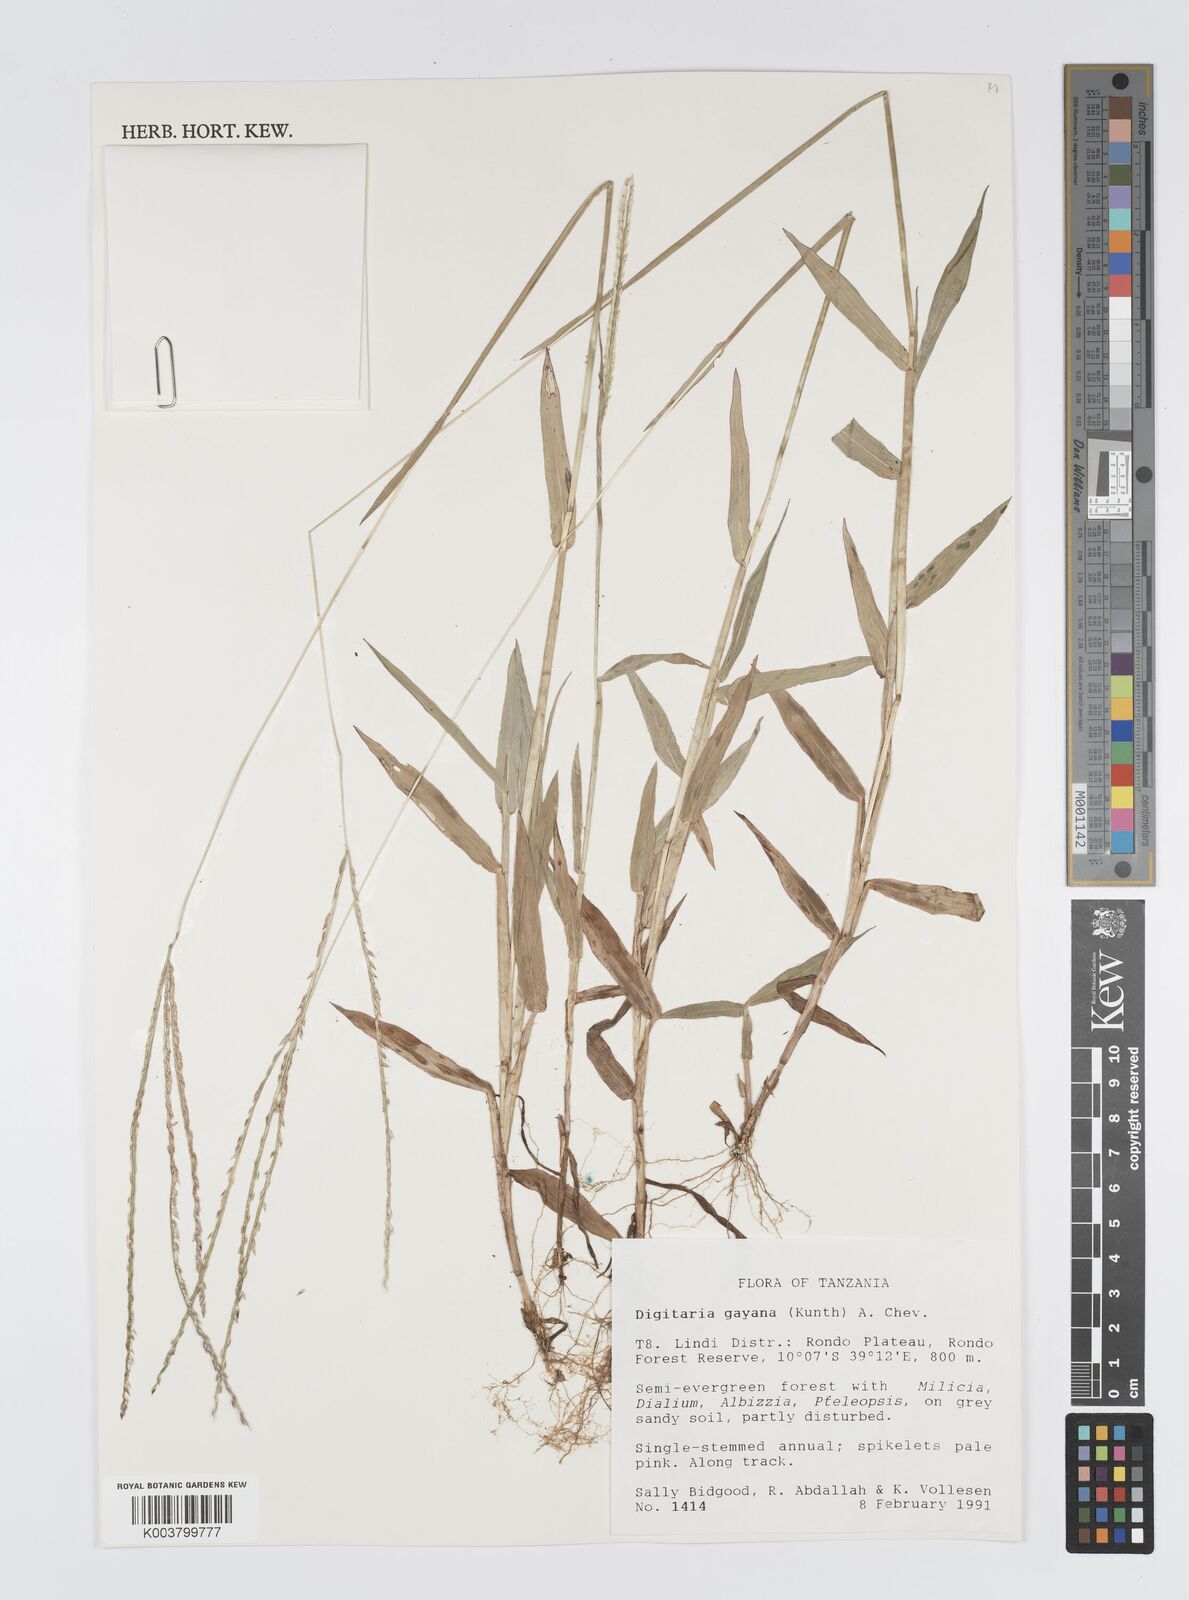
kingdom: Plantae
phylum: Tracheophyta
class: Liliopsida
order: Poales
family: Poaceae
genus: Digitaria
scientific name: Digitaria gayana
